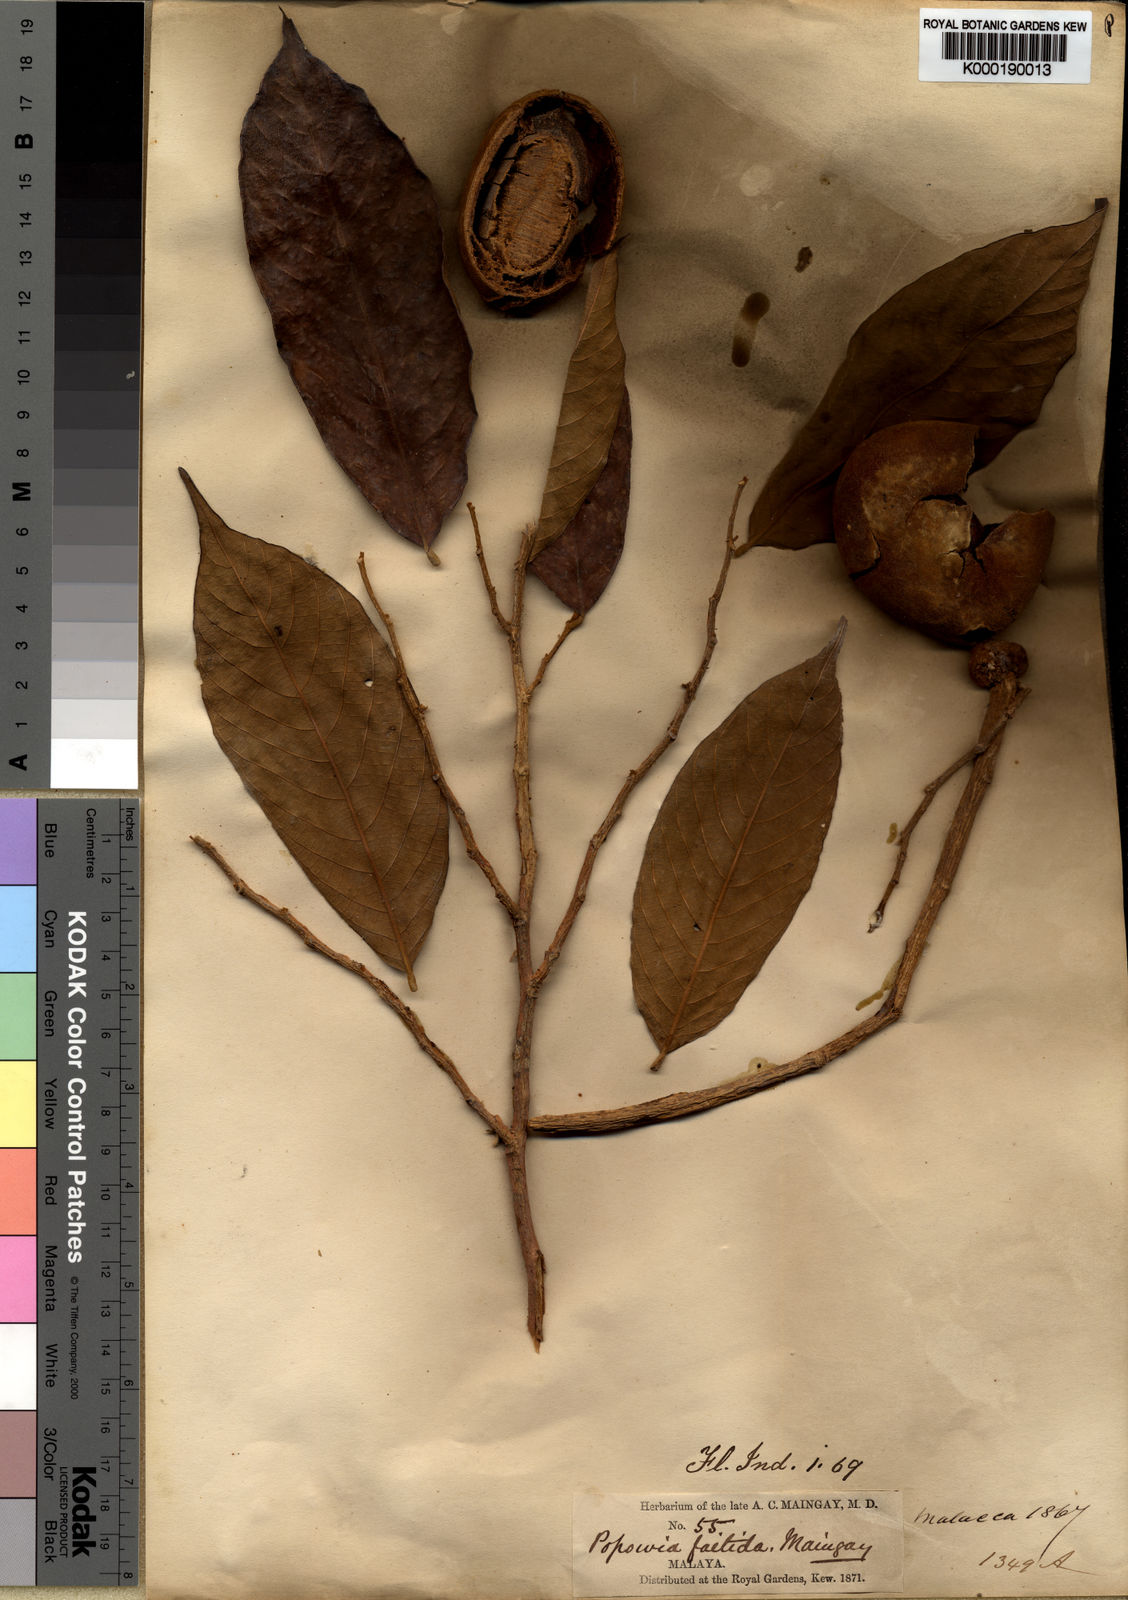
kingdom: Plantae
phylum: Tracheophyta
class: Magnoliopsida
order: Magnoliales
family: Annonaceae
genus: Neo-uvaria
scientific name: Neo-uvaria
